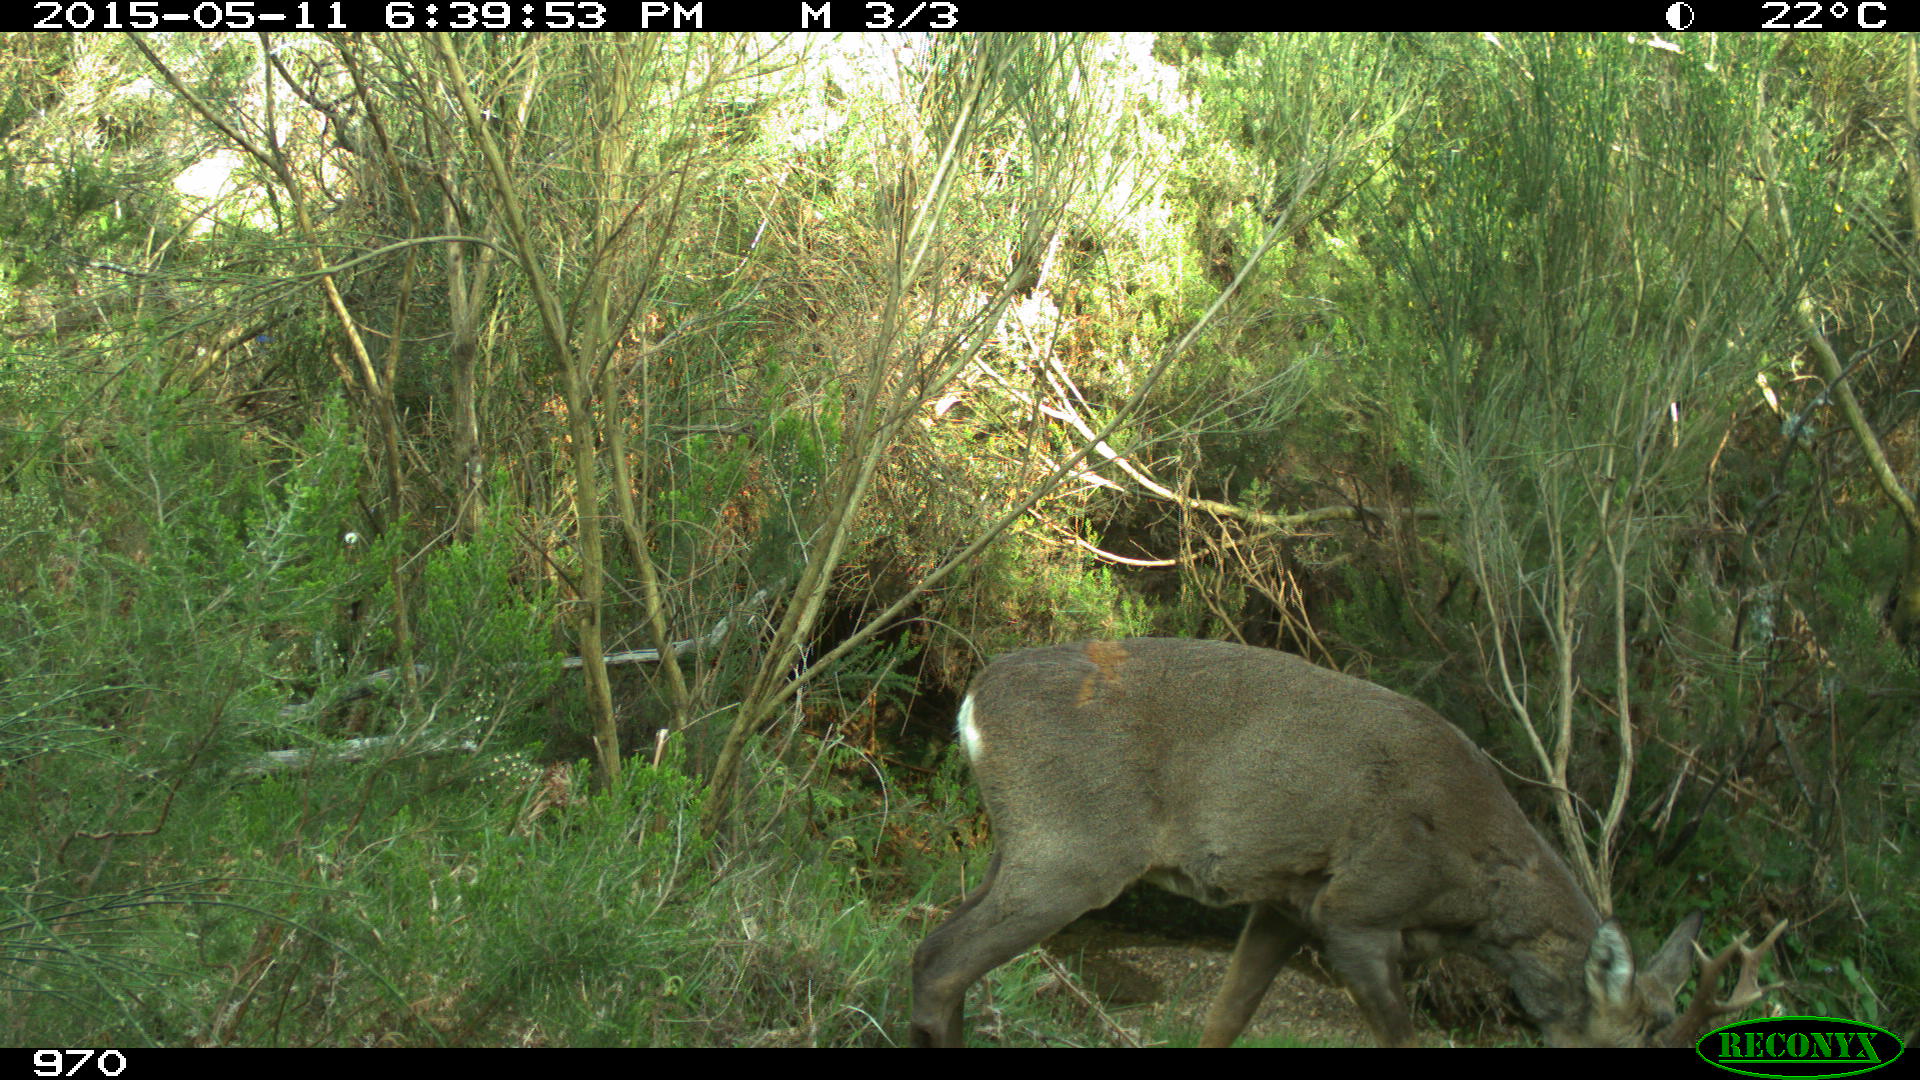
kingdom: Animalia
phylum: Chordata
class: Mammalia
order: Artiodactyla
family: Cervidae
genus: Capreolus
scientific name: Capreolus capreolus
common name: Western roe deer
